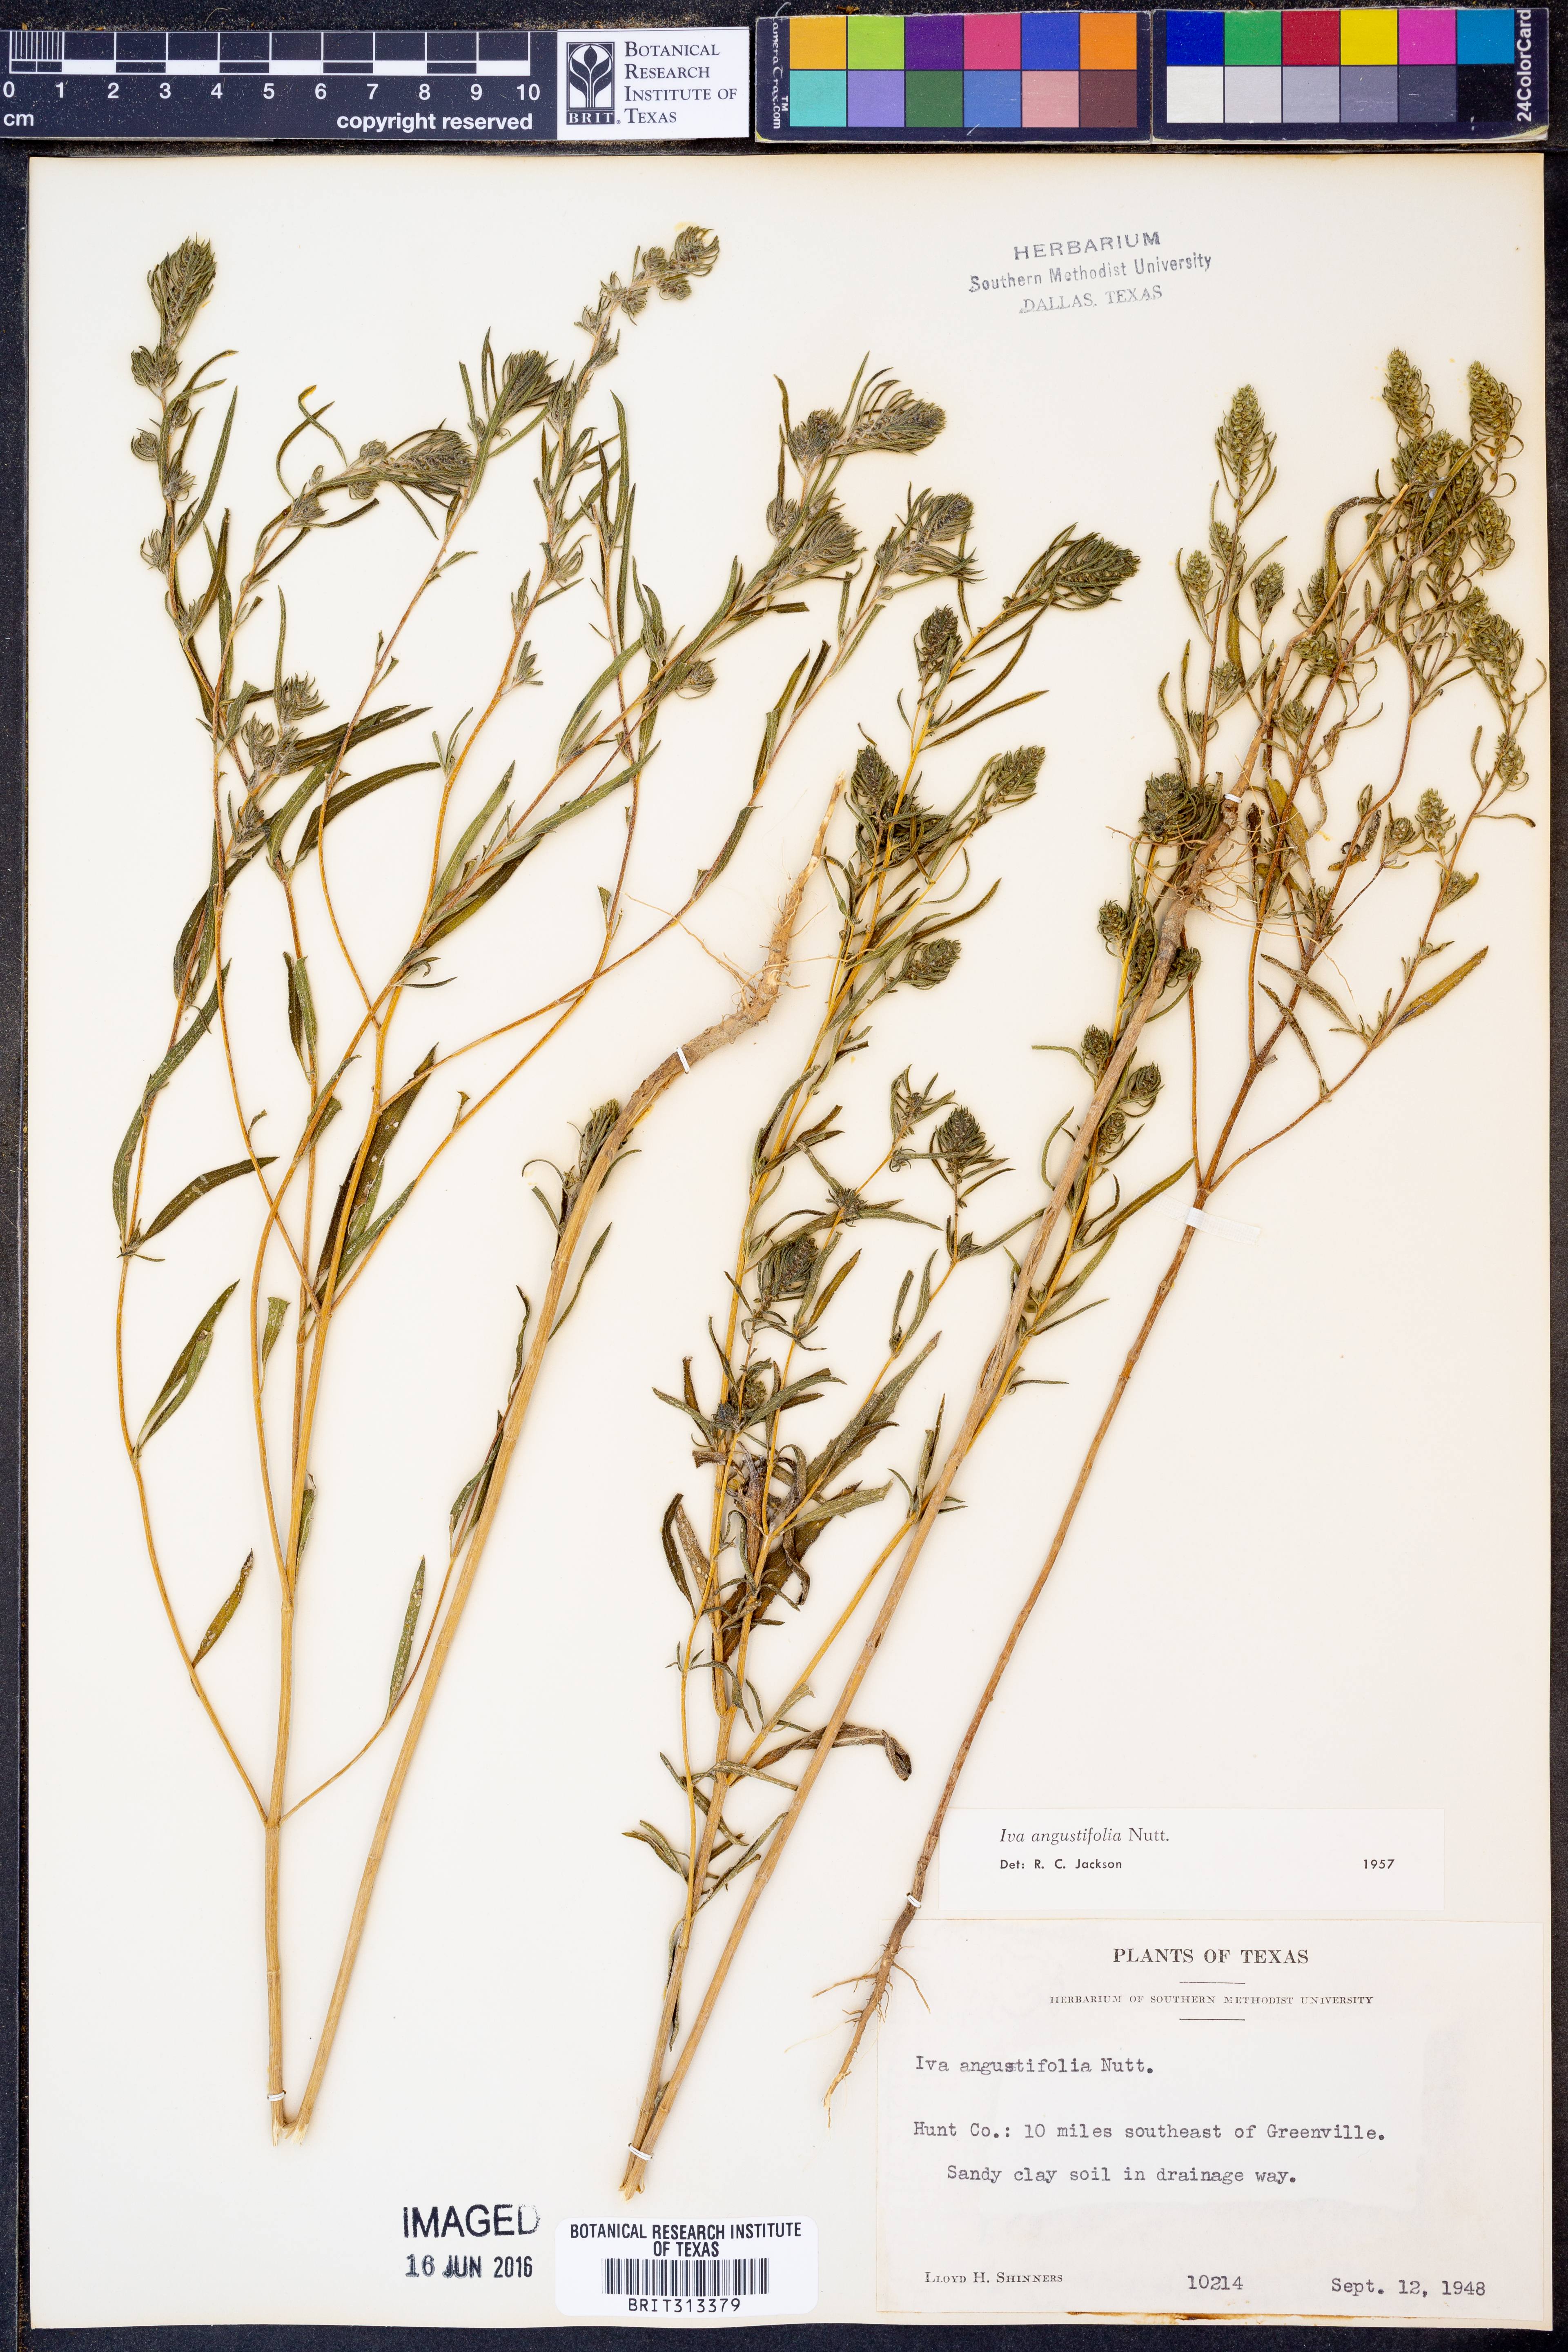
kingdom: Plantae
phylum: Tracheophyta
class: Magnoliopsida
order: Asterales
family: Asteraceae
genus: Iva
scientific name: Iva asperifolia
